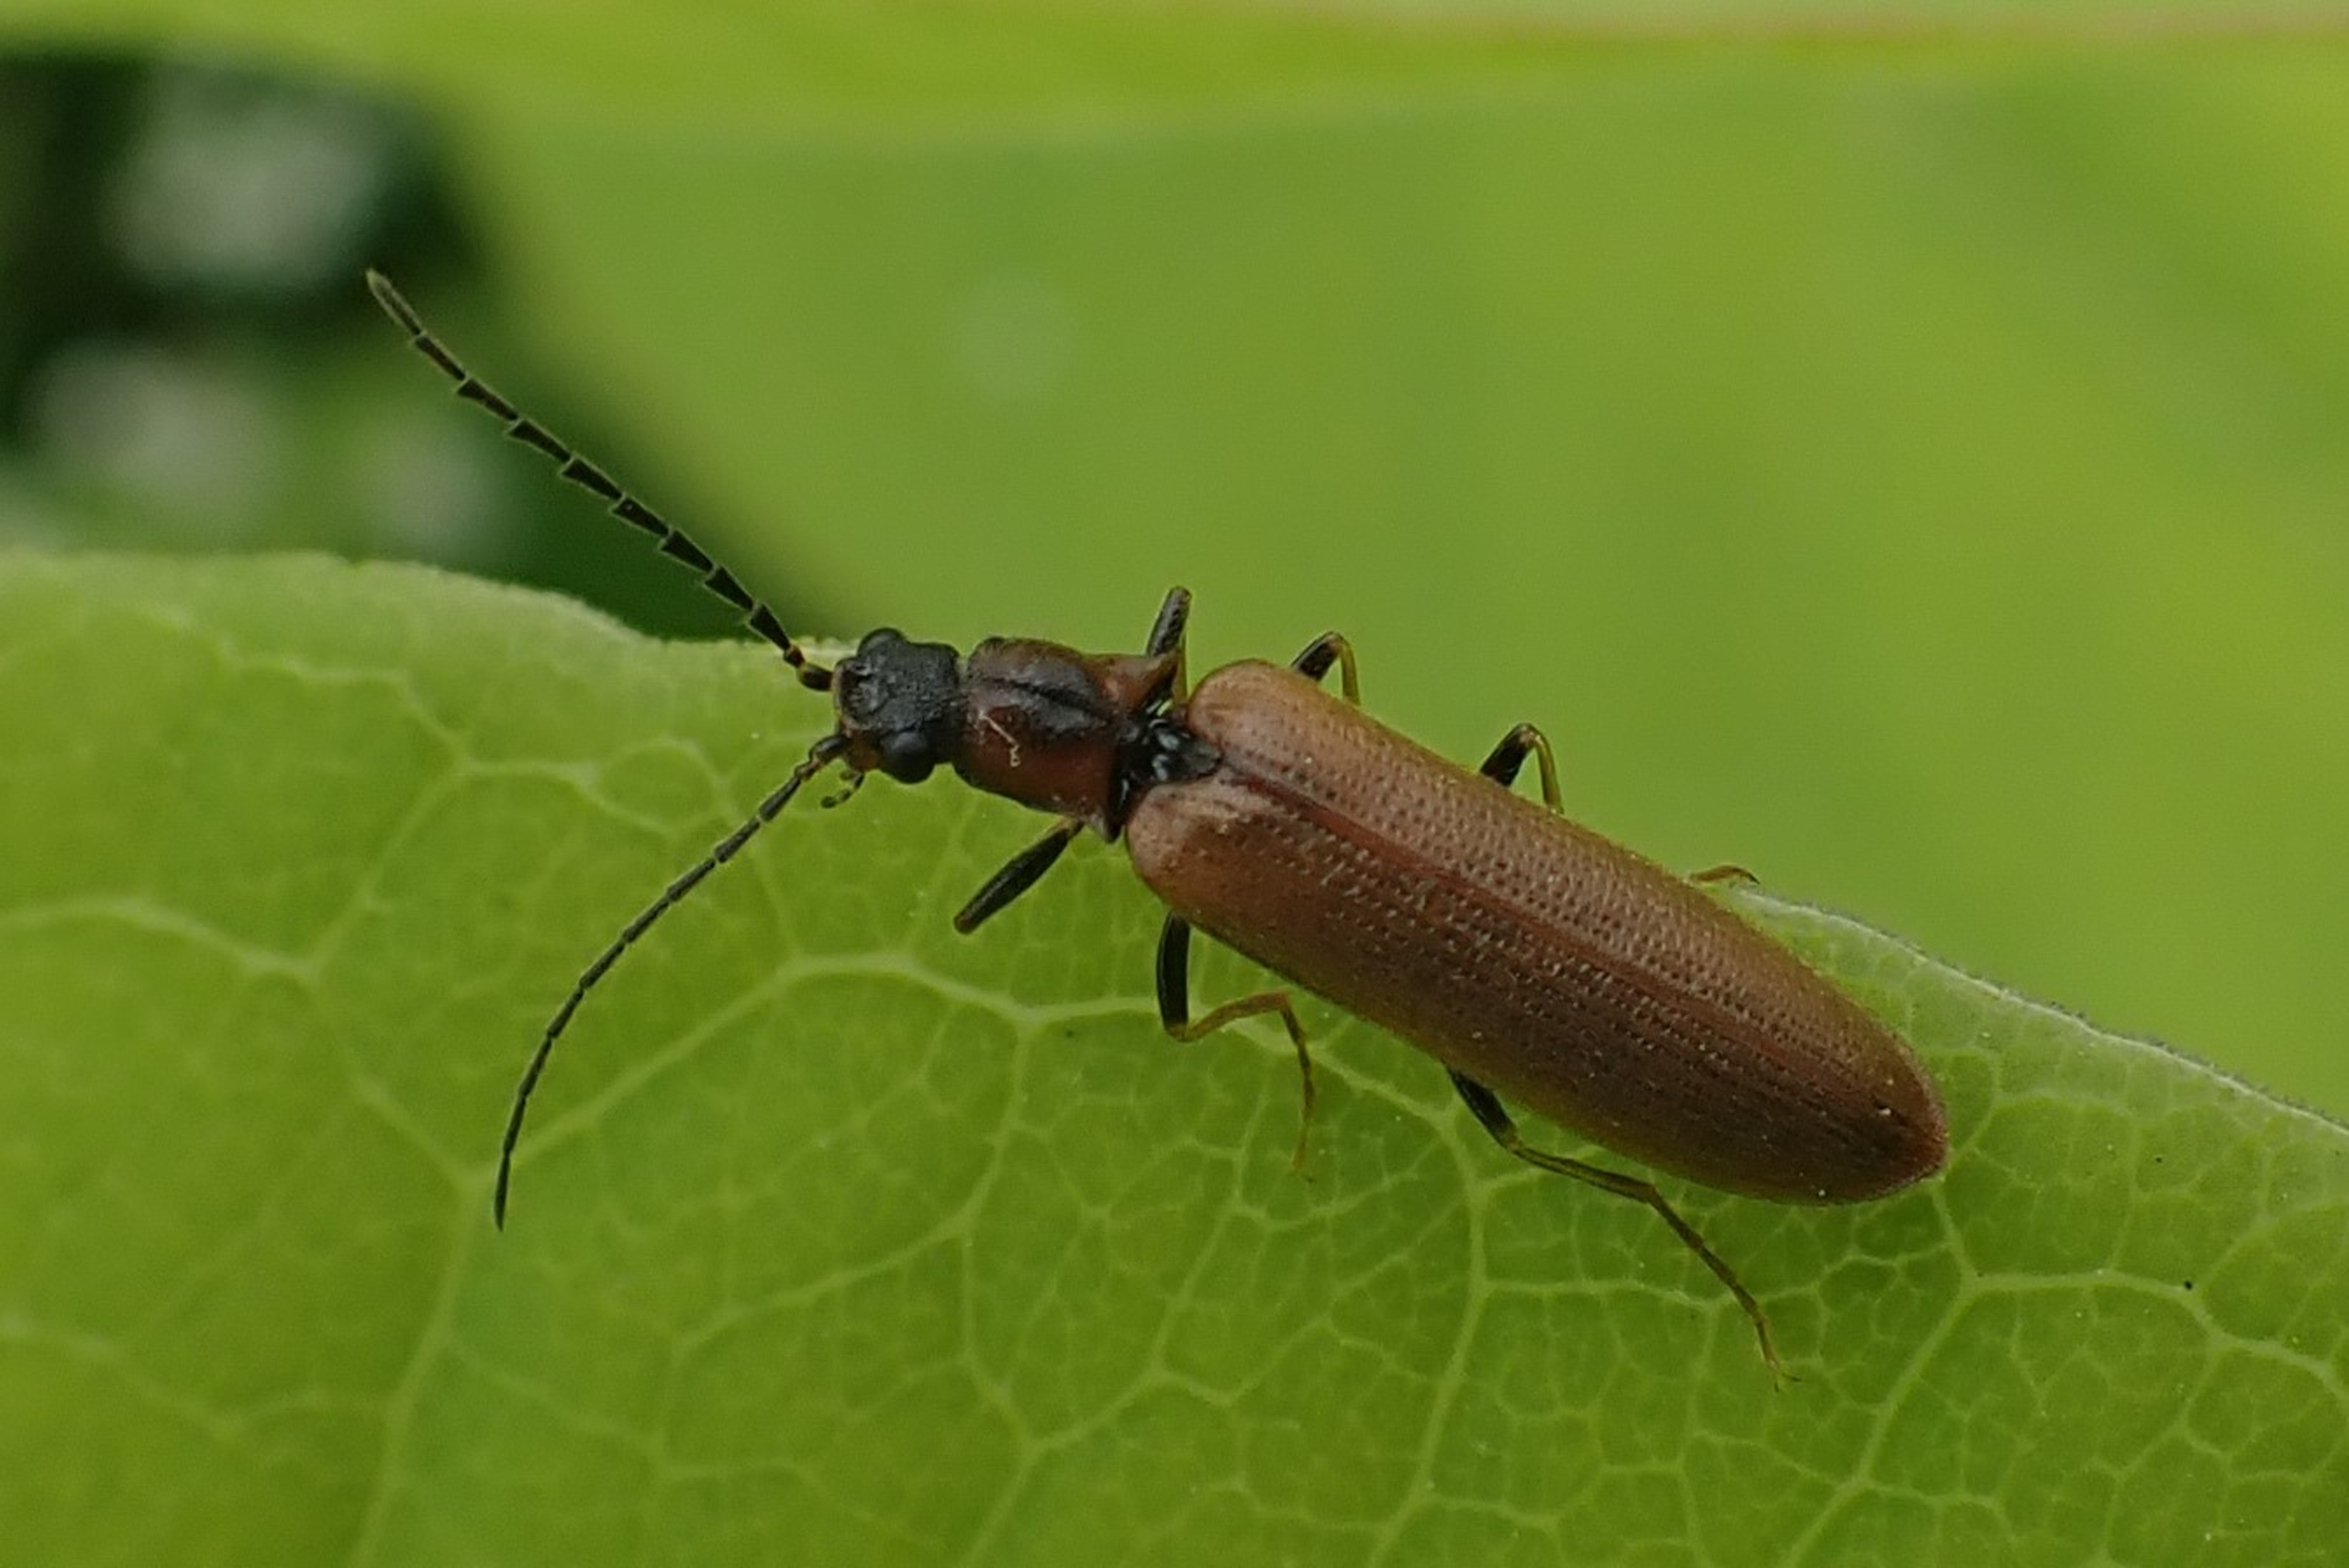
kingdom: Animalia
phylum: Arthropoda
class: Insecta
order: Coleoptera
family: Elateridae
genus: Denticollis
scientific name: Denticollis linearis
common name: Almindelig sirsmælder
